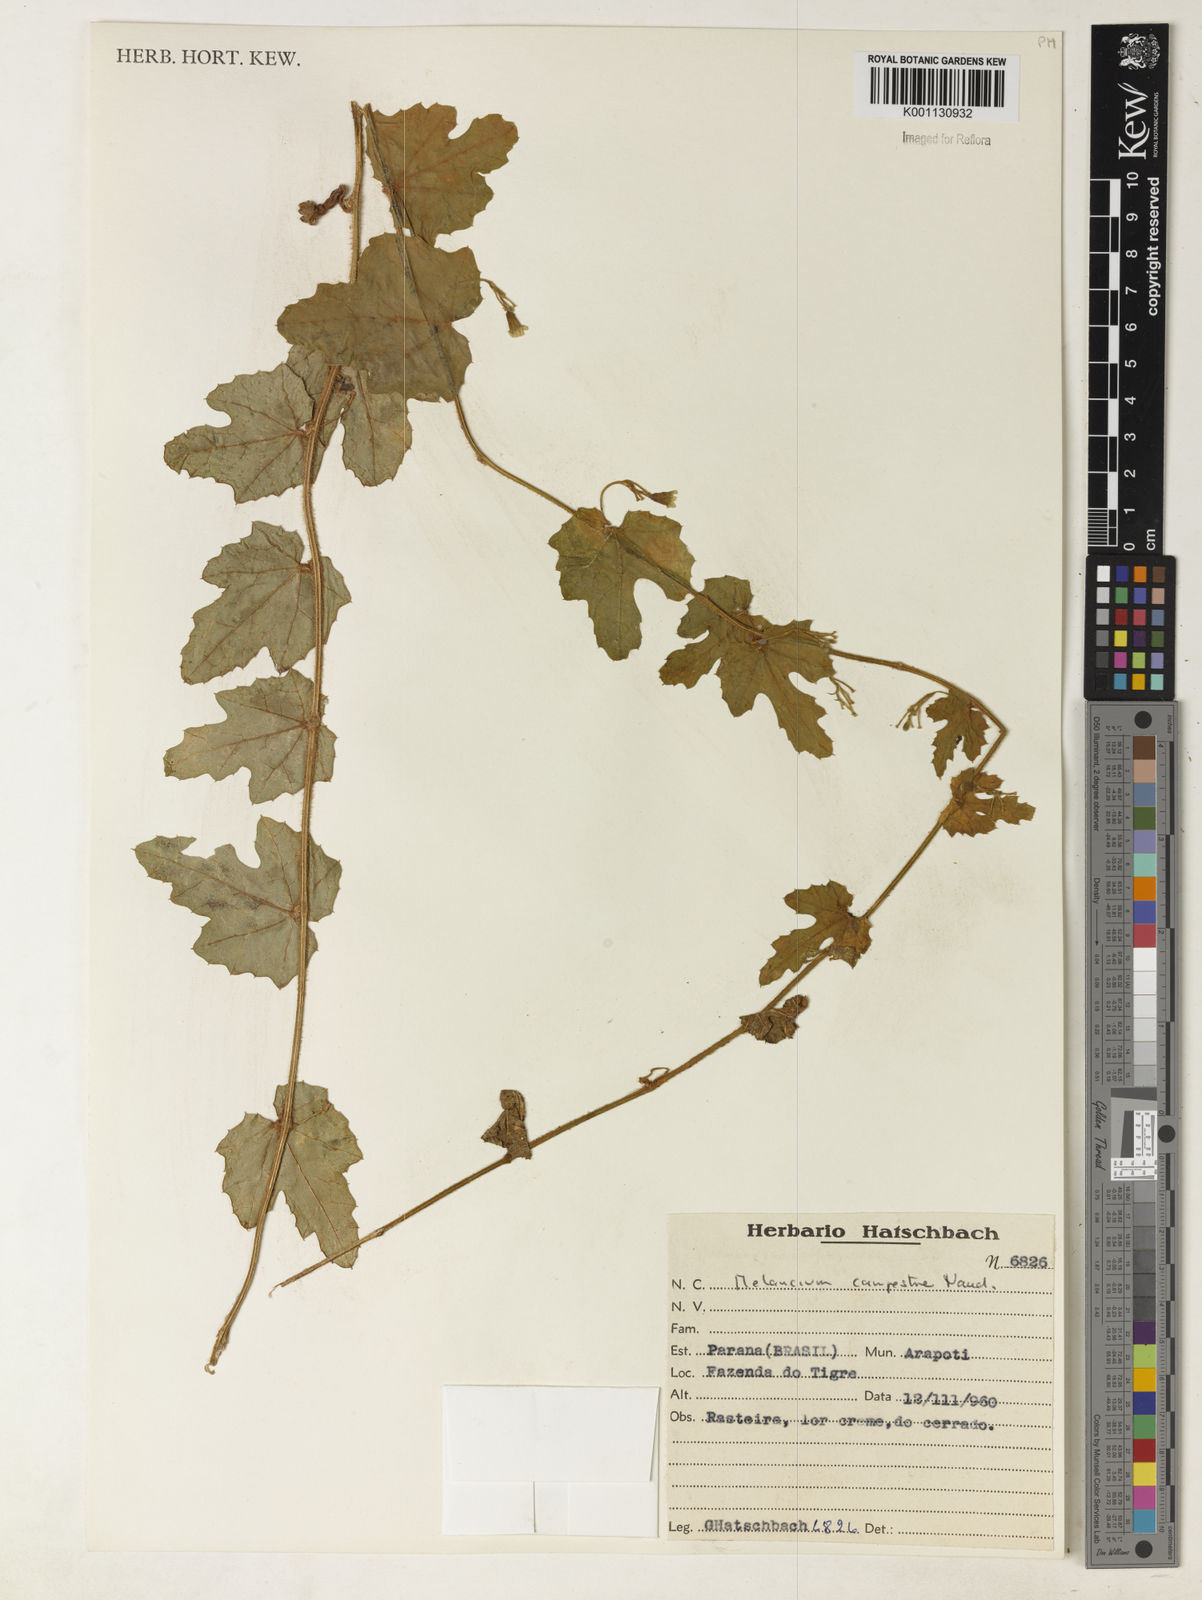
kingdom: Plantae
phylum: Tracheophyta
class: Magnoliopsida
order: Cucurbitales
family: Cucurbitaceae
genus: Melothria
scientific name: Melothria campestris
